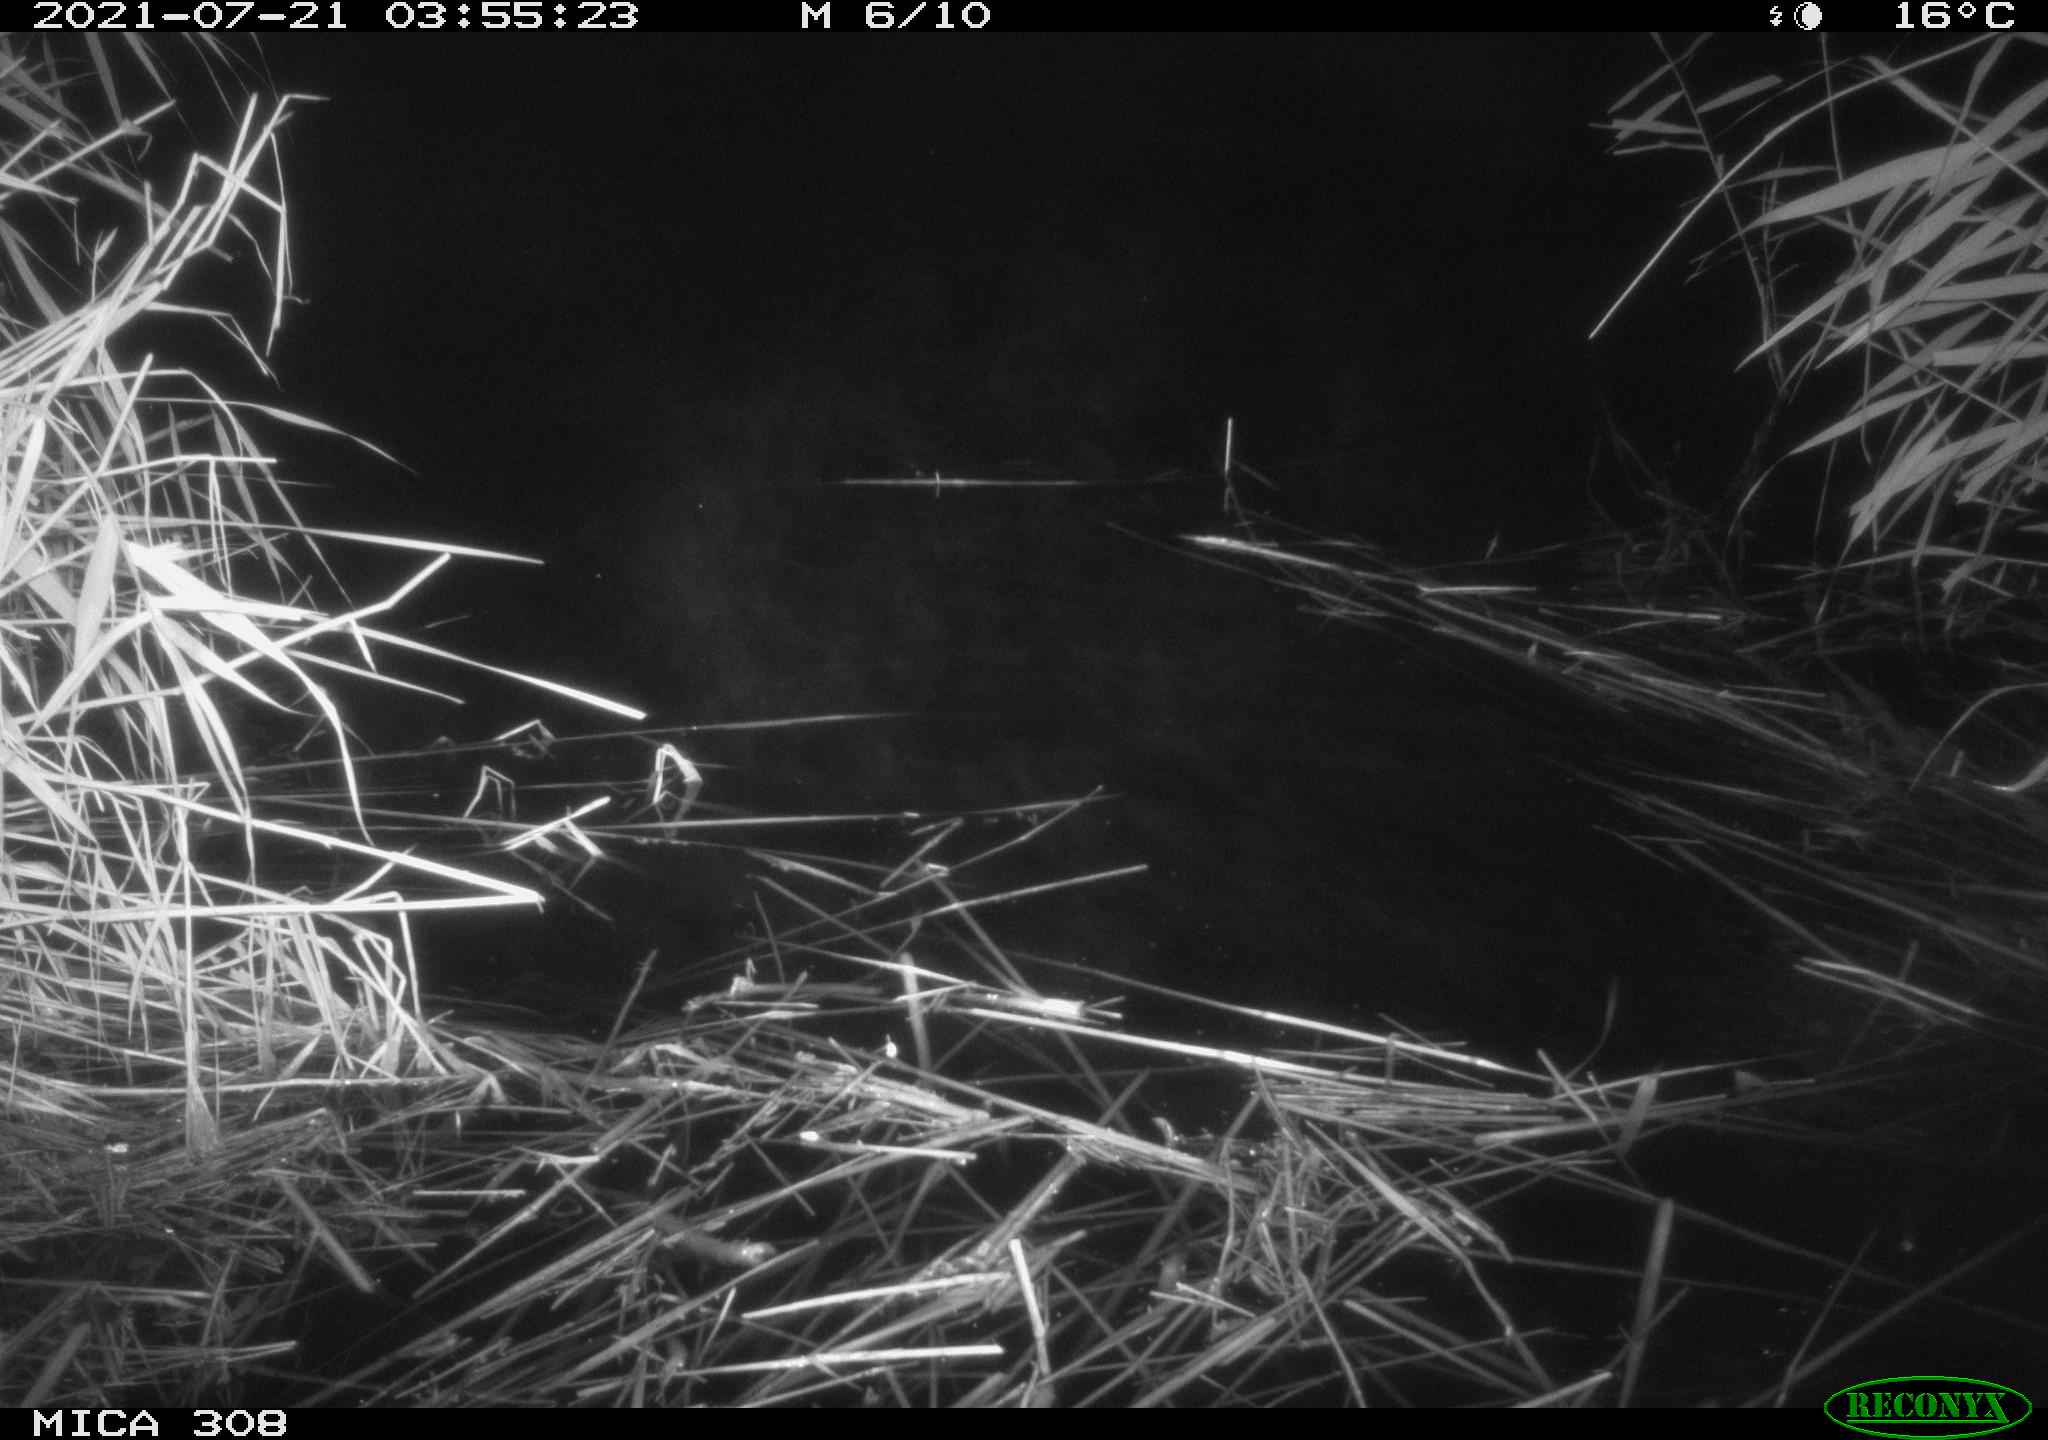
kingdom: Animalia
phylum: Chordata
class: Aves
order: Anseriformes
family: Anatidae
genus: Anas
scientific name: Anas platyrhynchos
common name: Mallard
